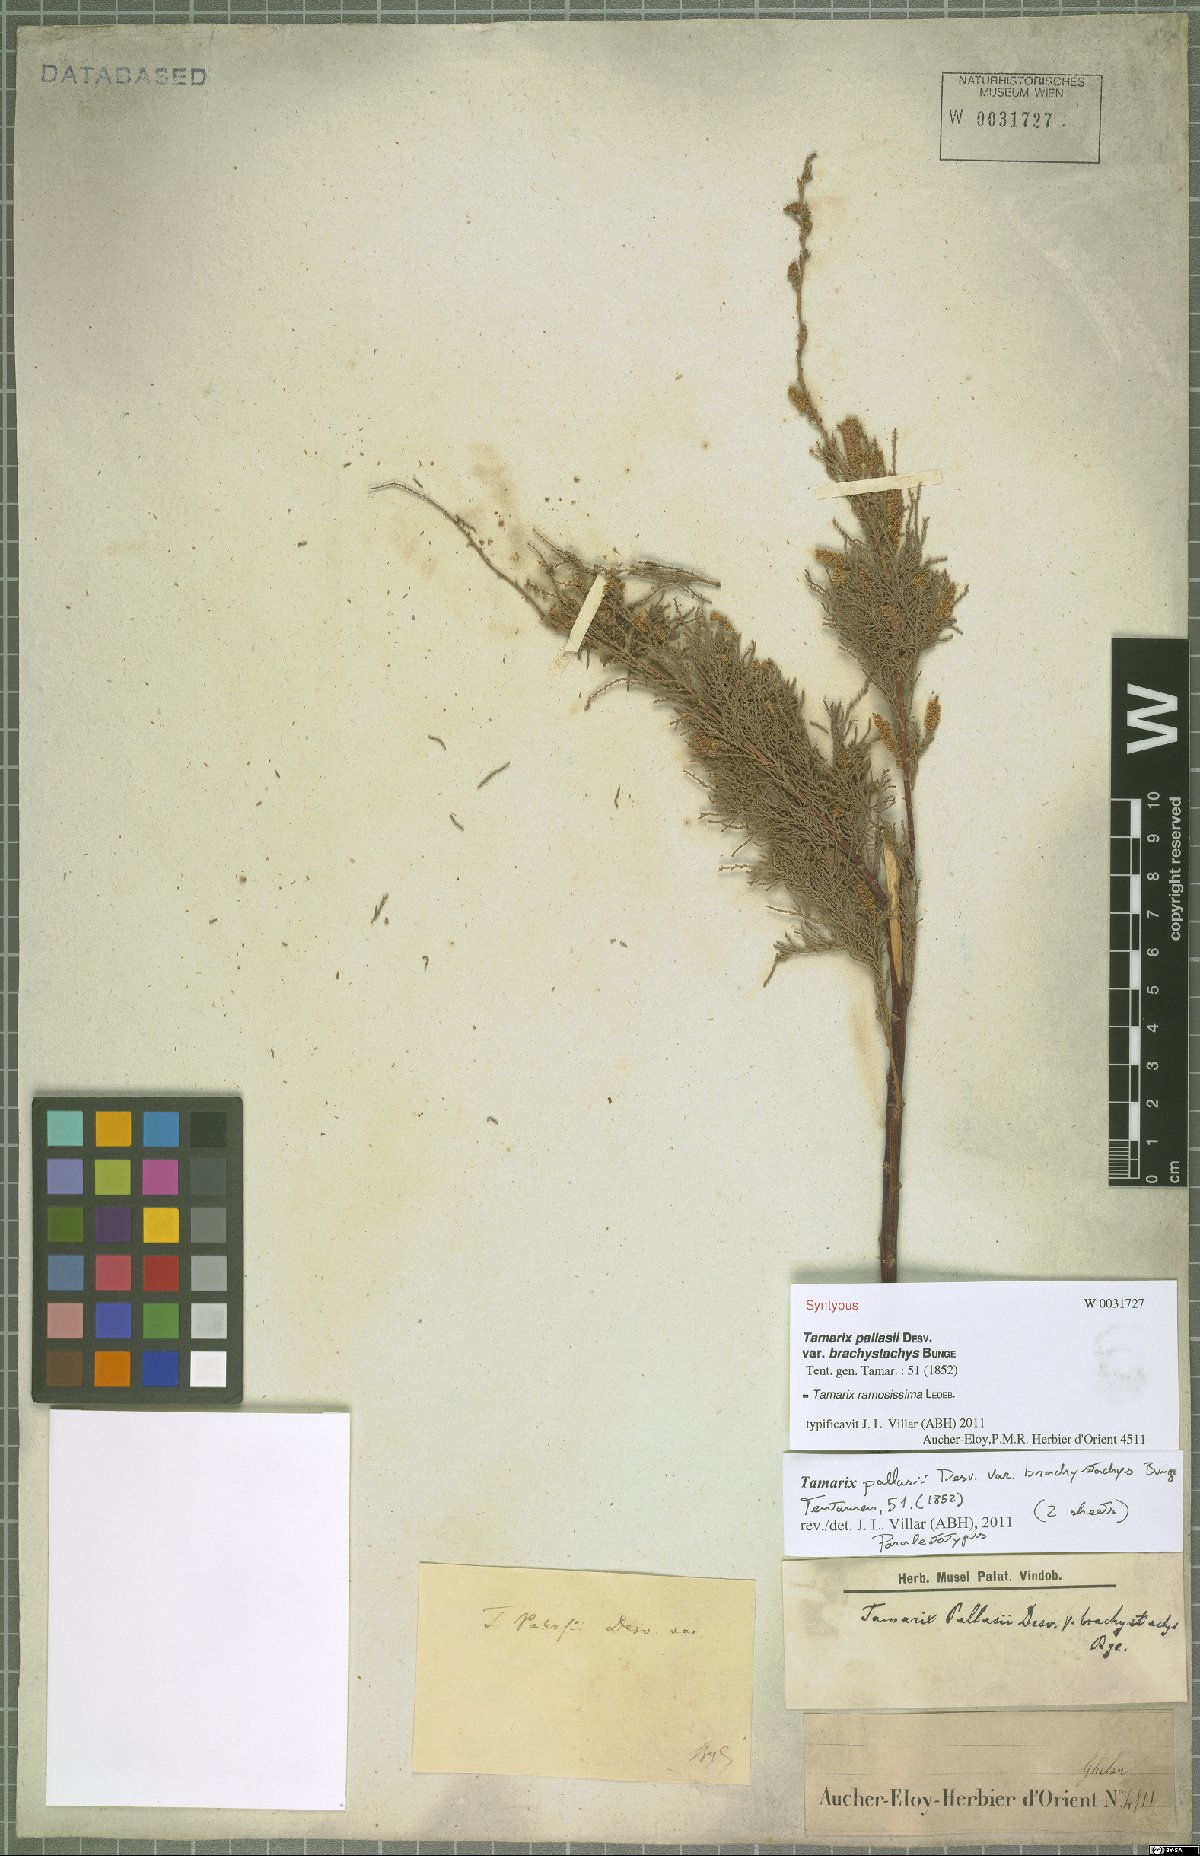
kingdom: Plantae
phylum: Tracheophyta
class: Magnoliopsida
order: Caryophyllales
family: Tamaricaceae
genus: Tamarix
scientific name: Tamarix ramosissima
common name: Pink tamarisk
